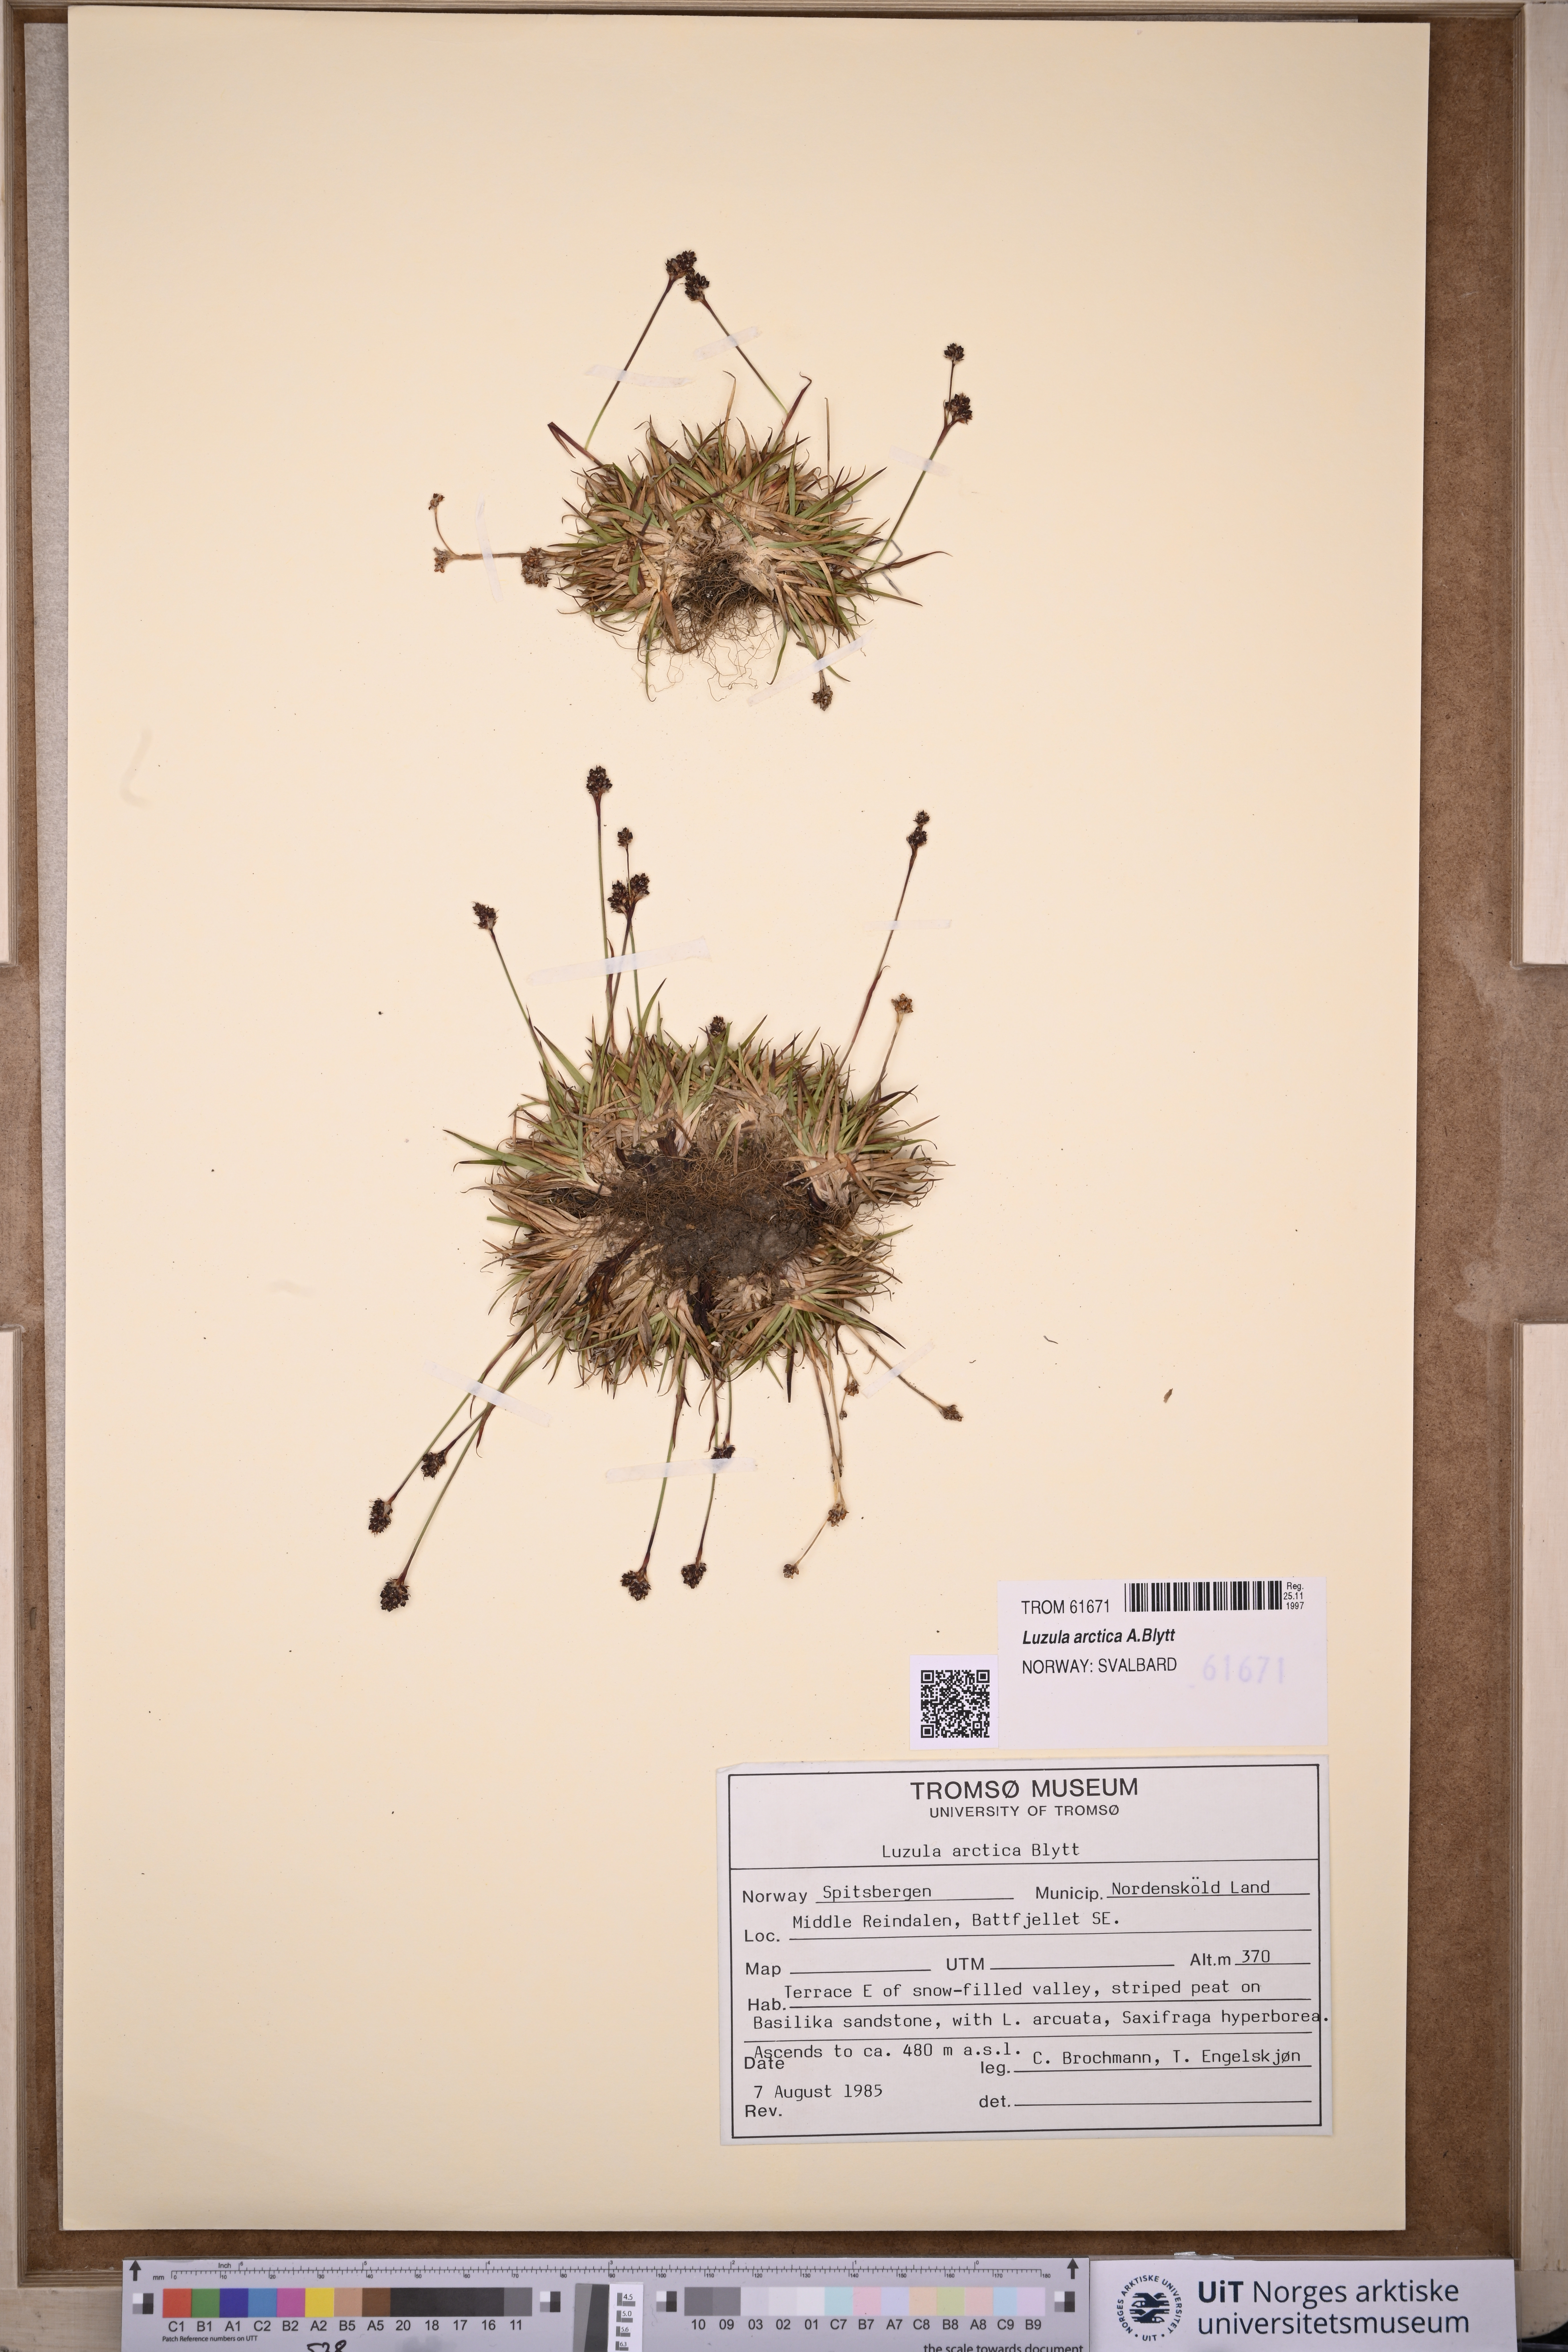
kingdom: Plantae
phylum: Tracheophyta
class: Liliopsida
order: Poales
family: Juncaceae
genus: Luzula
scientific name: Luzula nivalis
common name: Arctic woodrush
